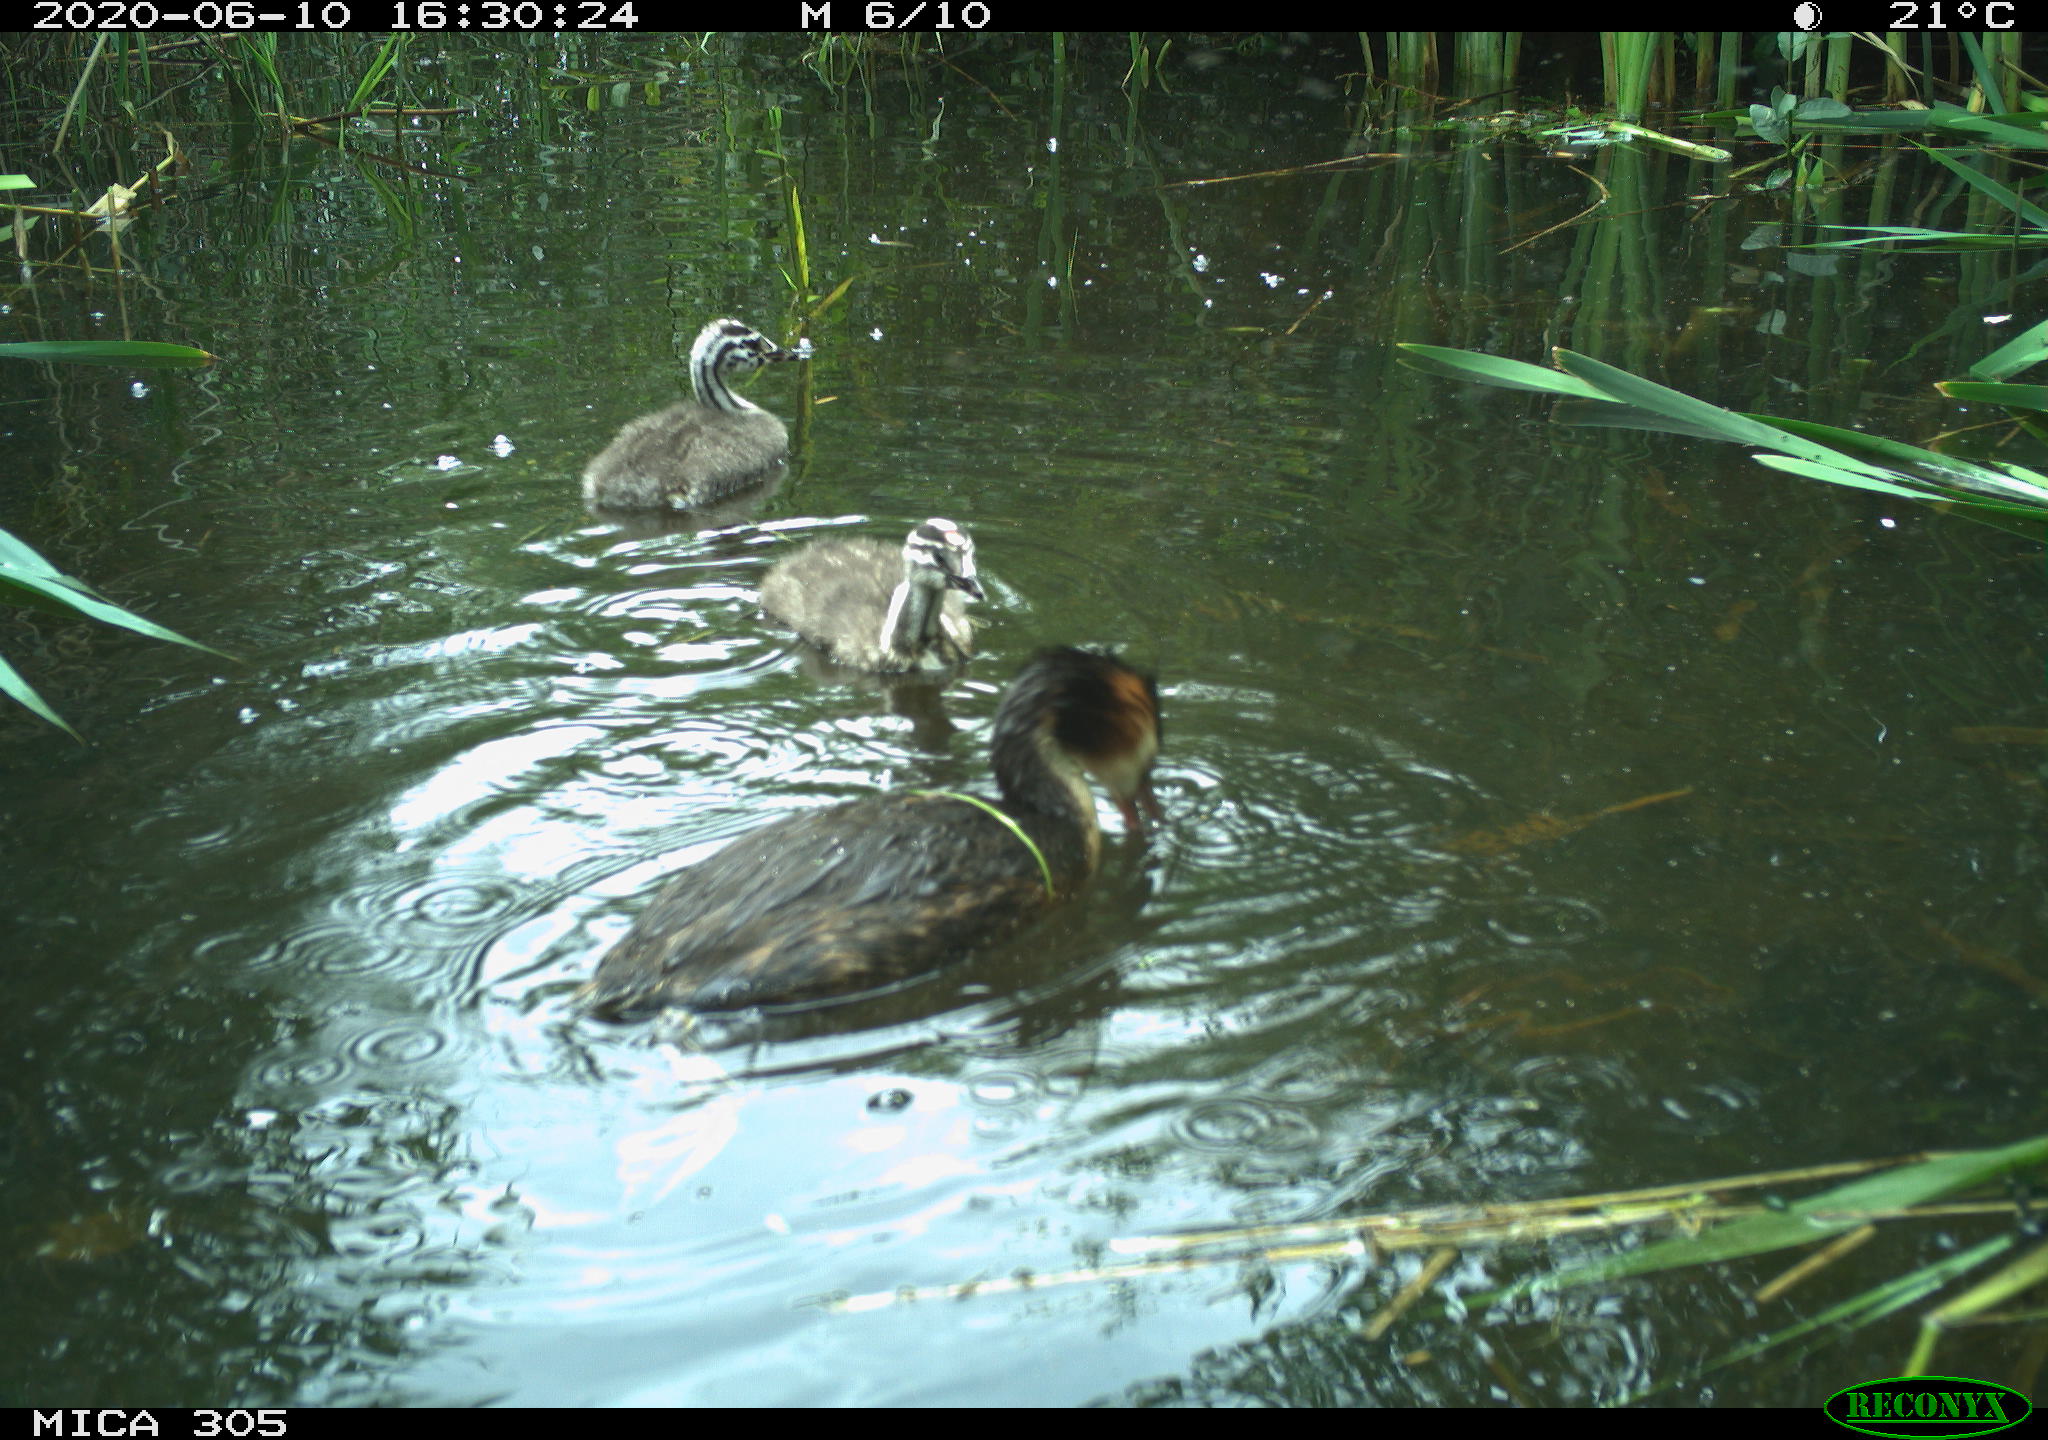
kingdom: Animalia
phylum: Chordata
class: Aves
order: Podicipediformes
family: Podicipedidae
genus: Podiceps
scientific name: Podiceps cristatus
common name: Great crested grebe
